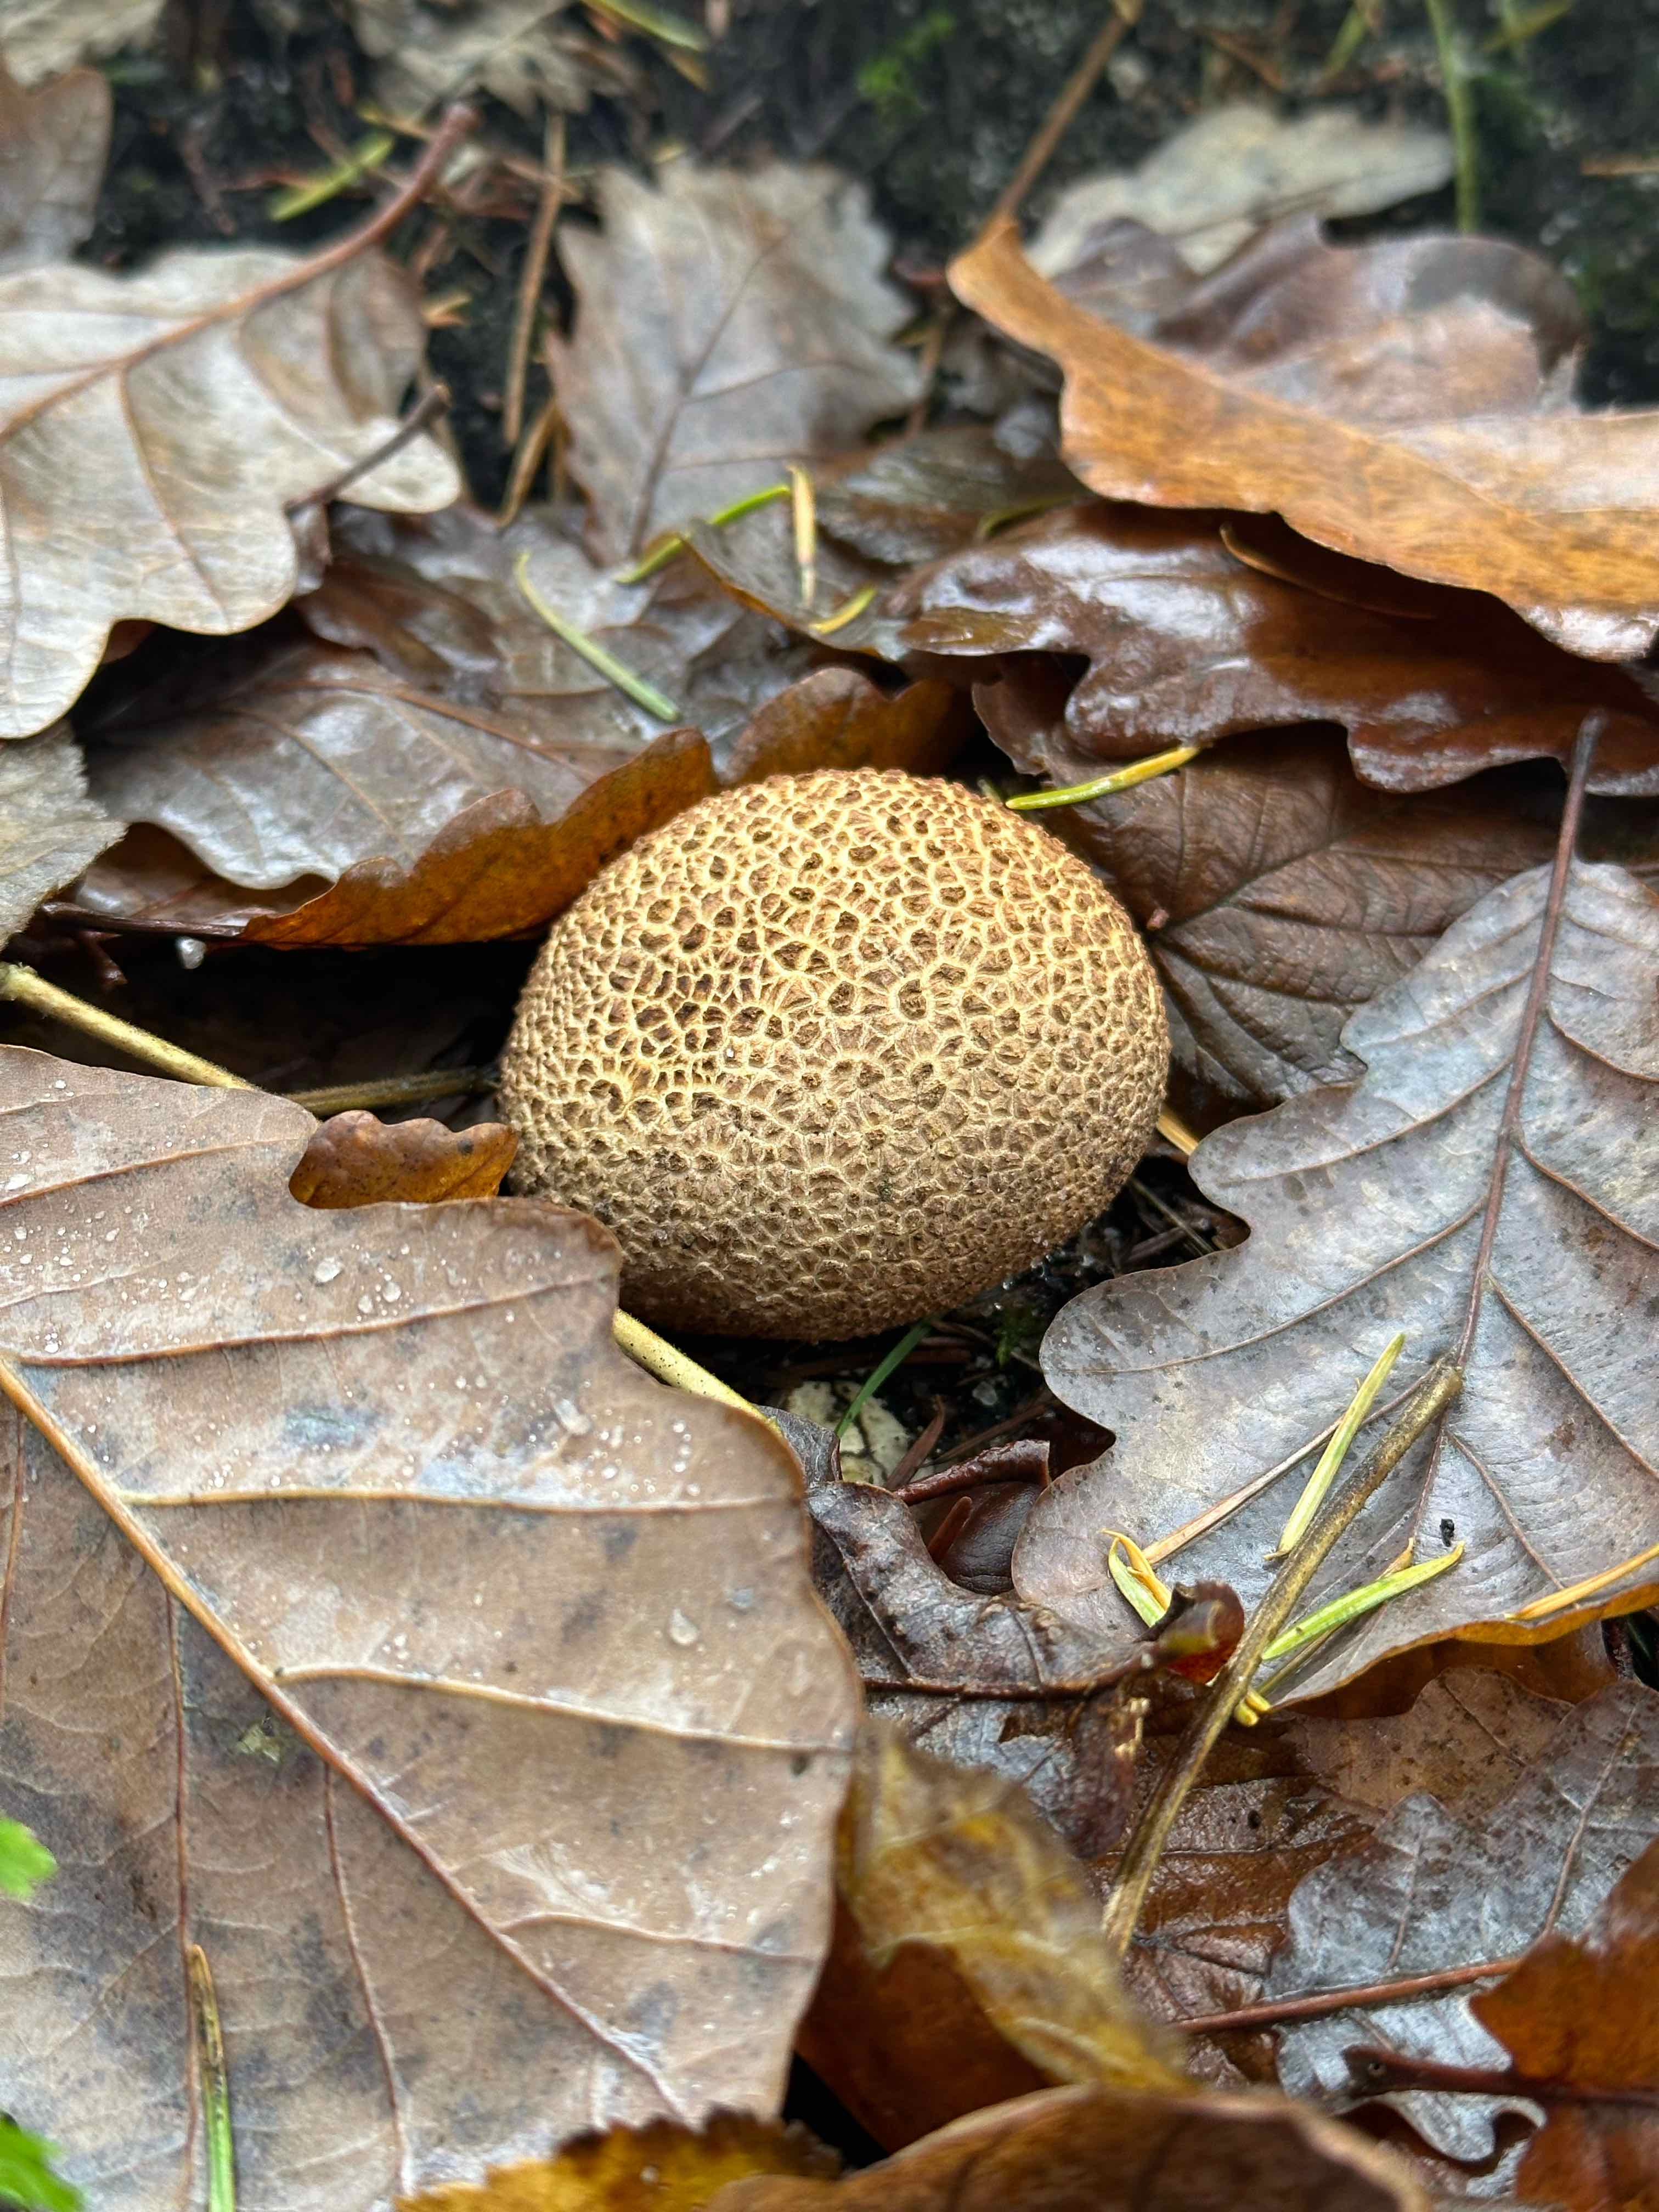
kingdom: Fungi
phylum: Basidiomycota
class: Agaricomycetes
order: Boletales
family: Sclerodermataceae
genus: Scleroderma
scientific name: Scleroderma citrinum
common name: almindelig bruskbold
